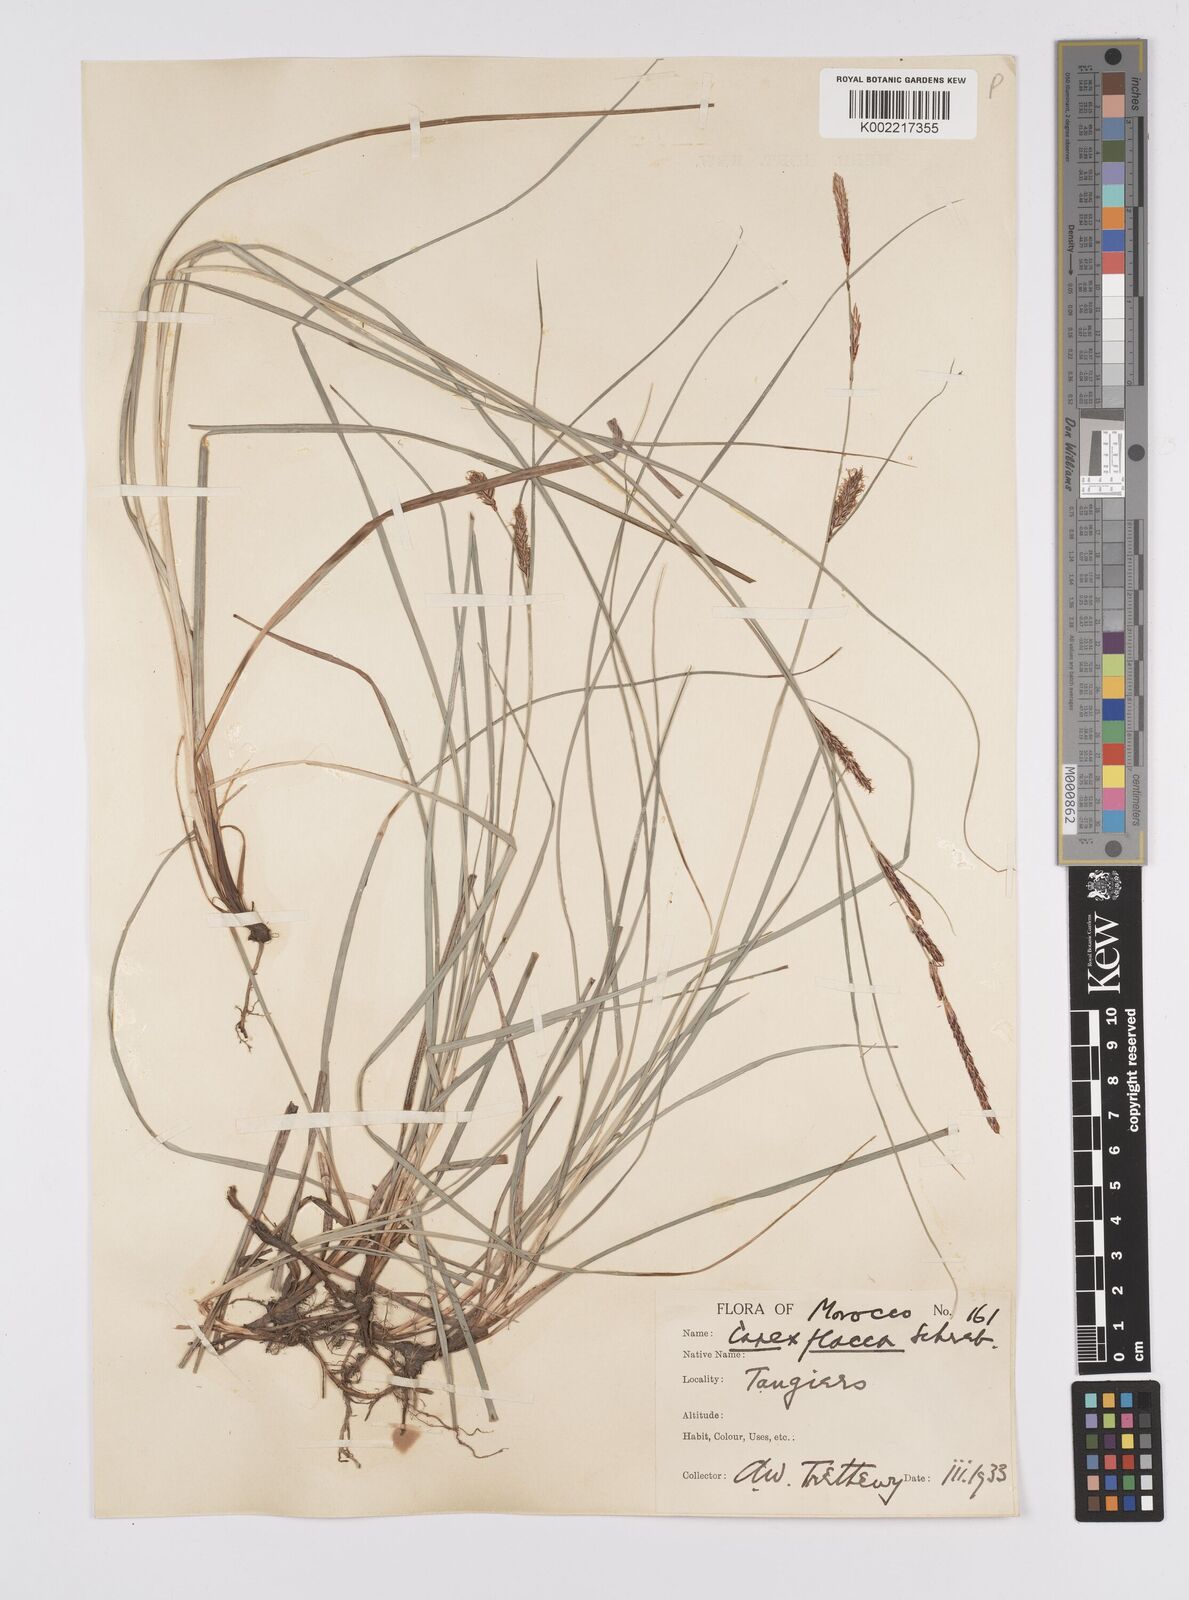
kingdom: Plantae
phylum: Tracheophyta
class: Liliopsida
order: Poales
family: Cyperaceae
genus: Carex
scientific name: Carex flacca
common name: Glaucous sedge
